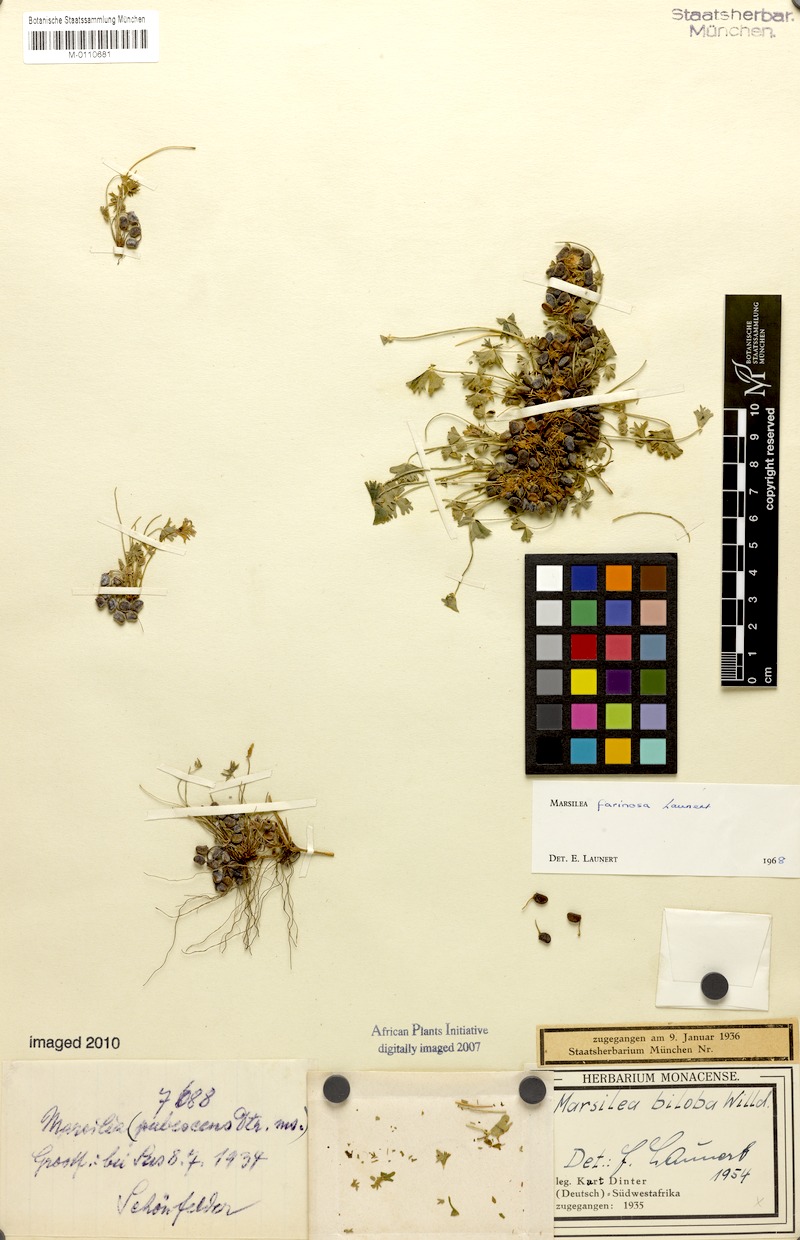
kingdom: Plantae
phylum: Tracheophyta
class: Polypodiopsida
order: Salviniales
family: Marsileaceae
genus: Marsilea
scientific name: Marsilea burchellii
